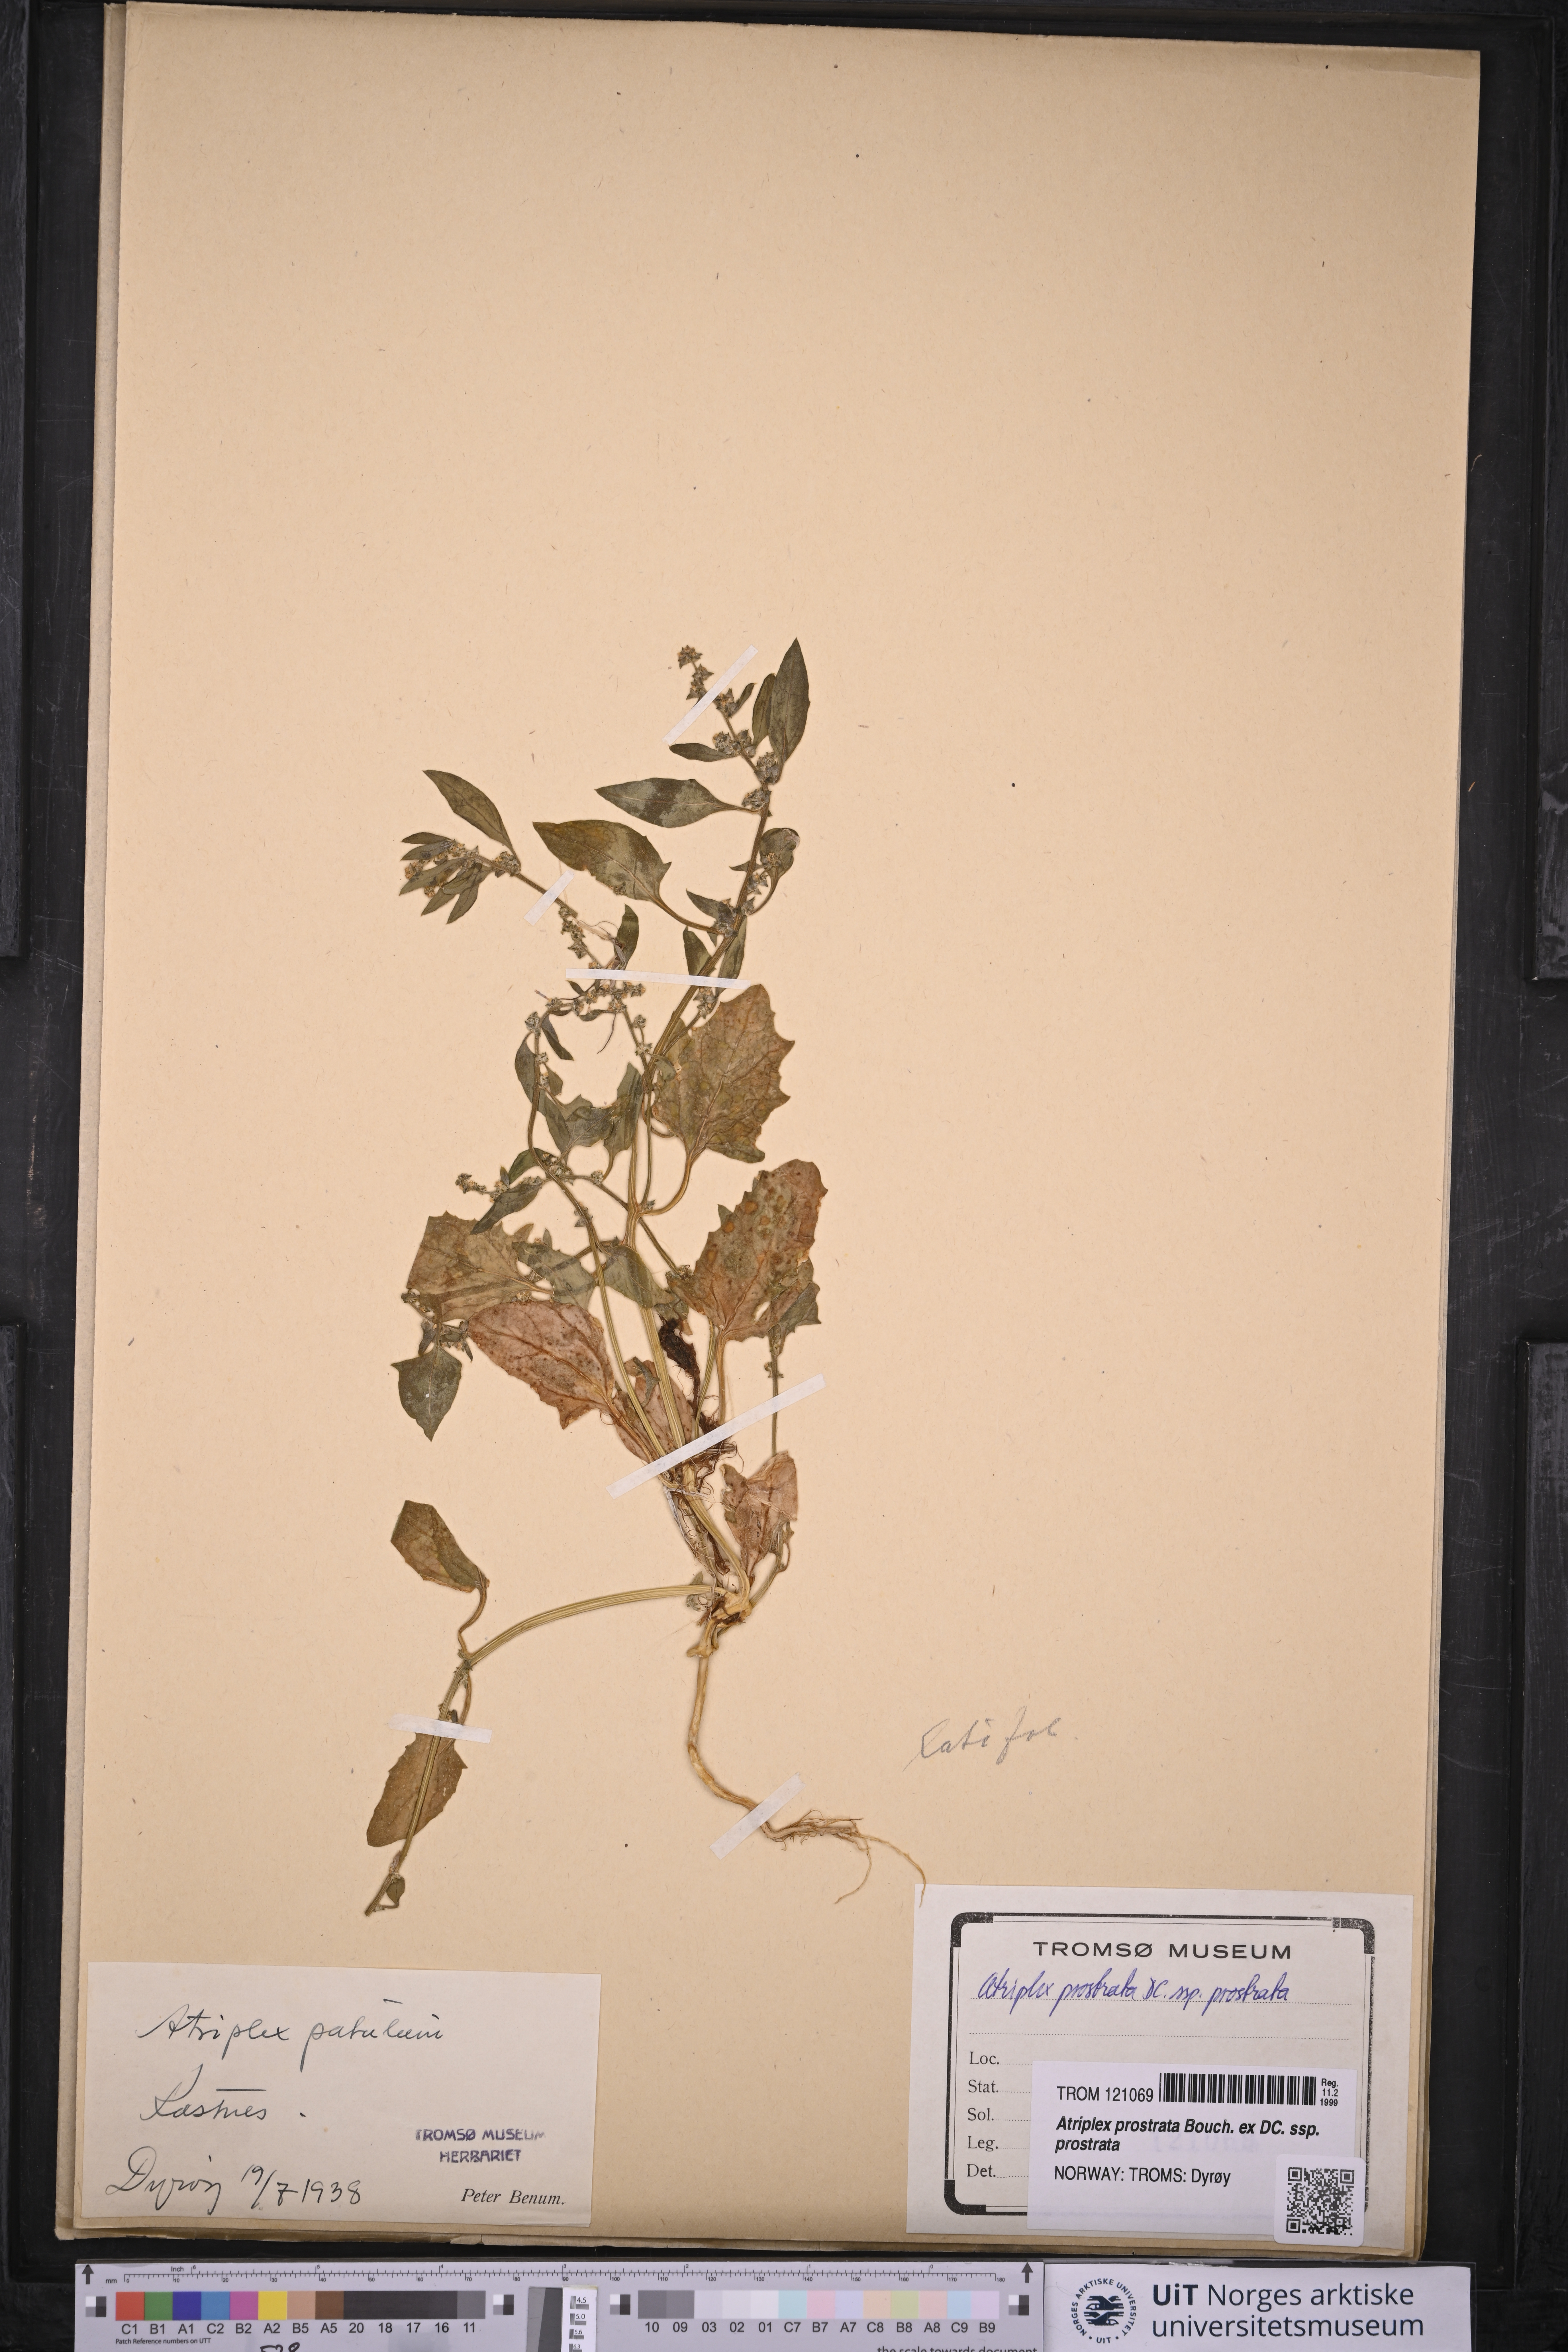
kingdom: Plantae
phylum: Tracheophyta
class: Magnoliopsida
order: Caryophyllales
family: Amaranthaceae
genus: Atriplex
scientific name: Atriplex prostrata
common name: Spear-leaved orache
